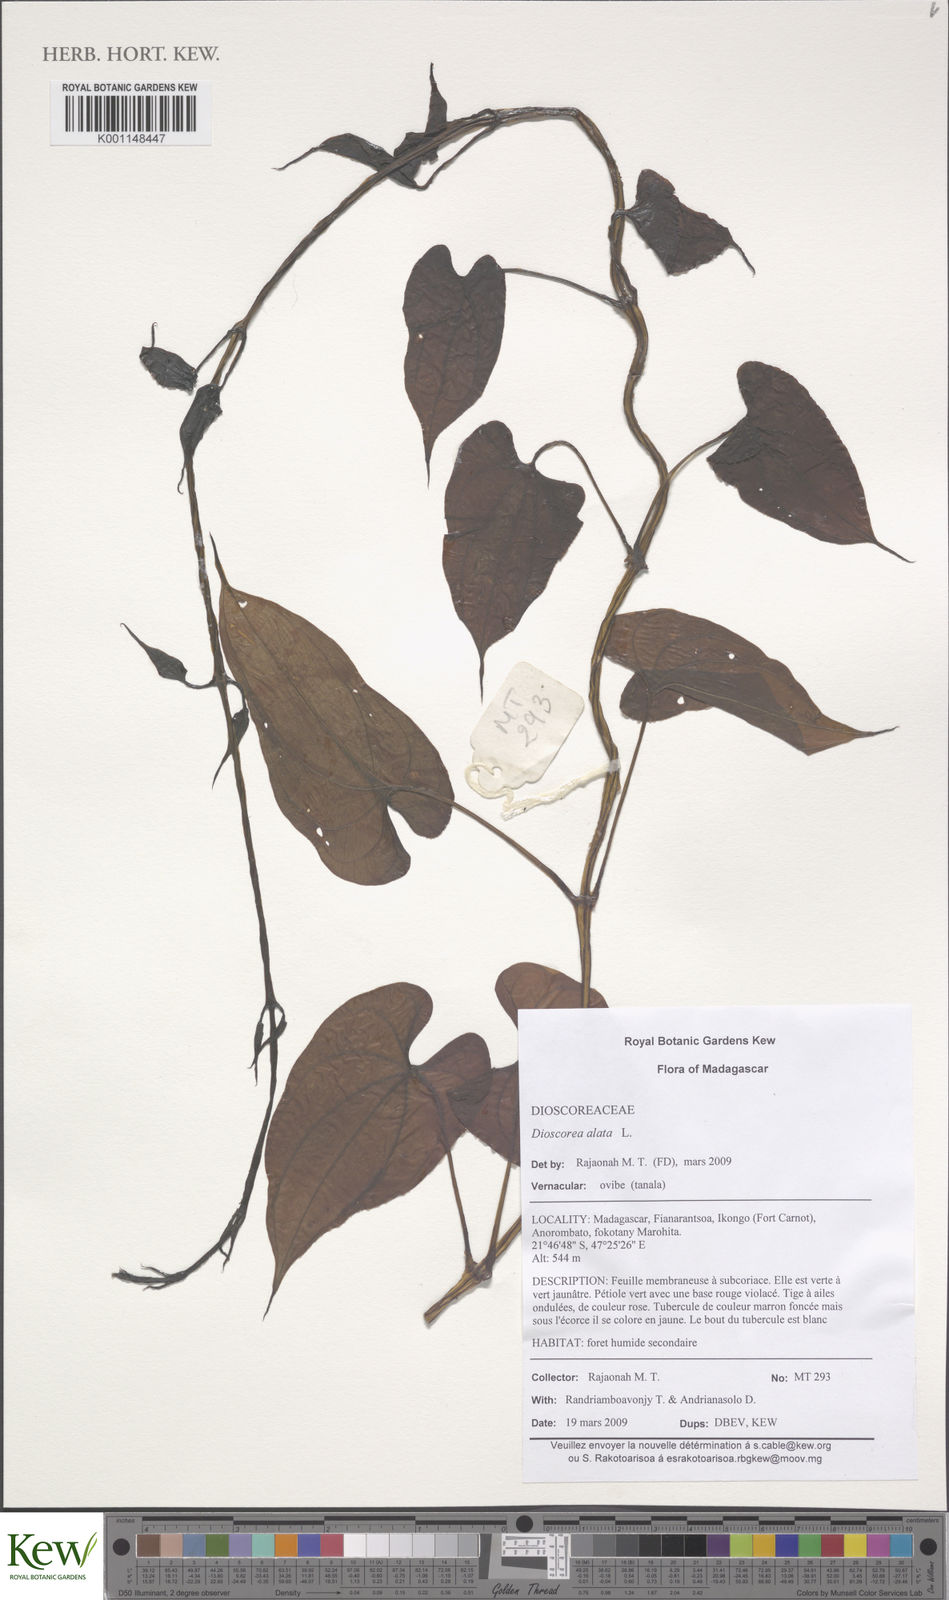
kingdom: Plantae
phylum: Tracheophyta
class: Liliopsida
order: Dioscoreales
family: Dioscoreaceae
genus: Dioscorea
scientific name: Dioscorea alata
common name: Water yam
